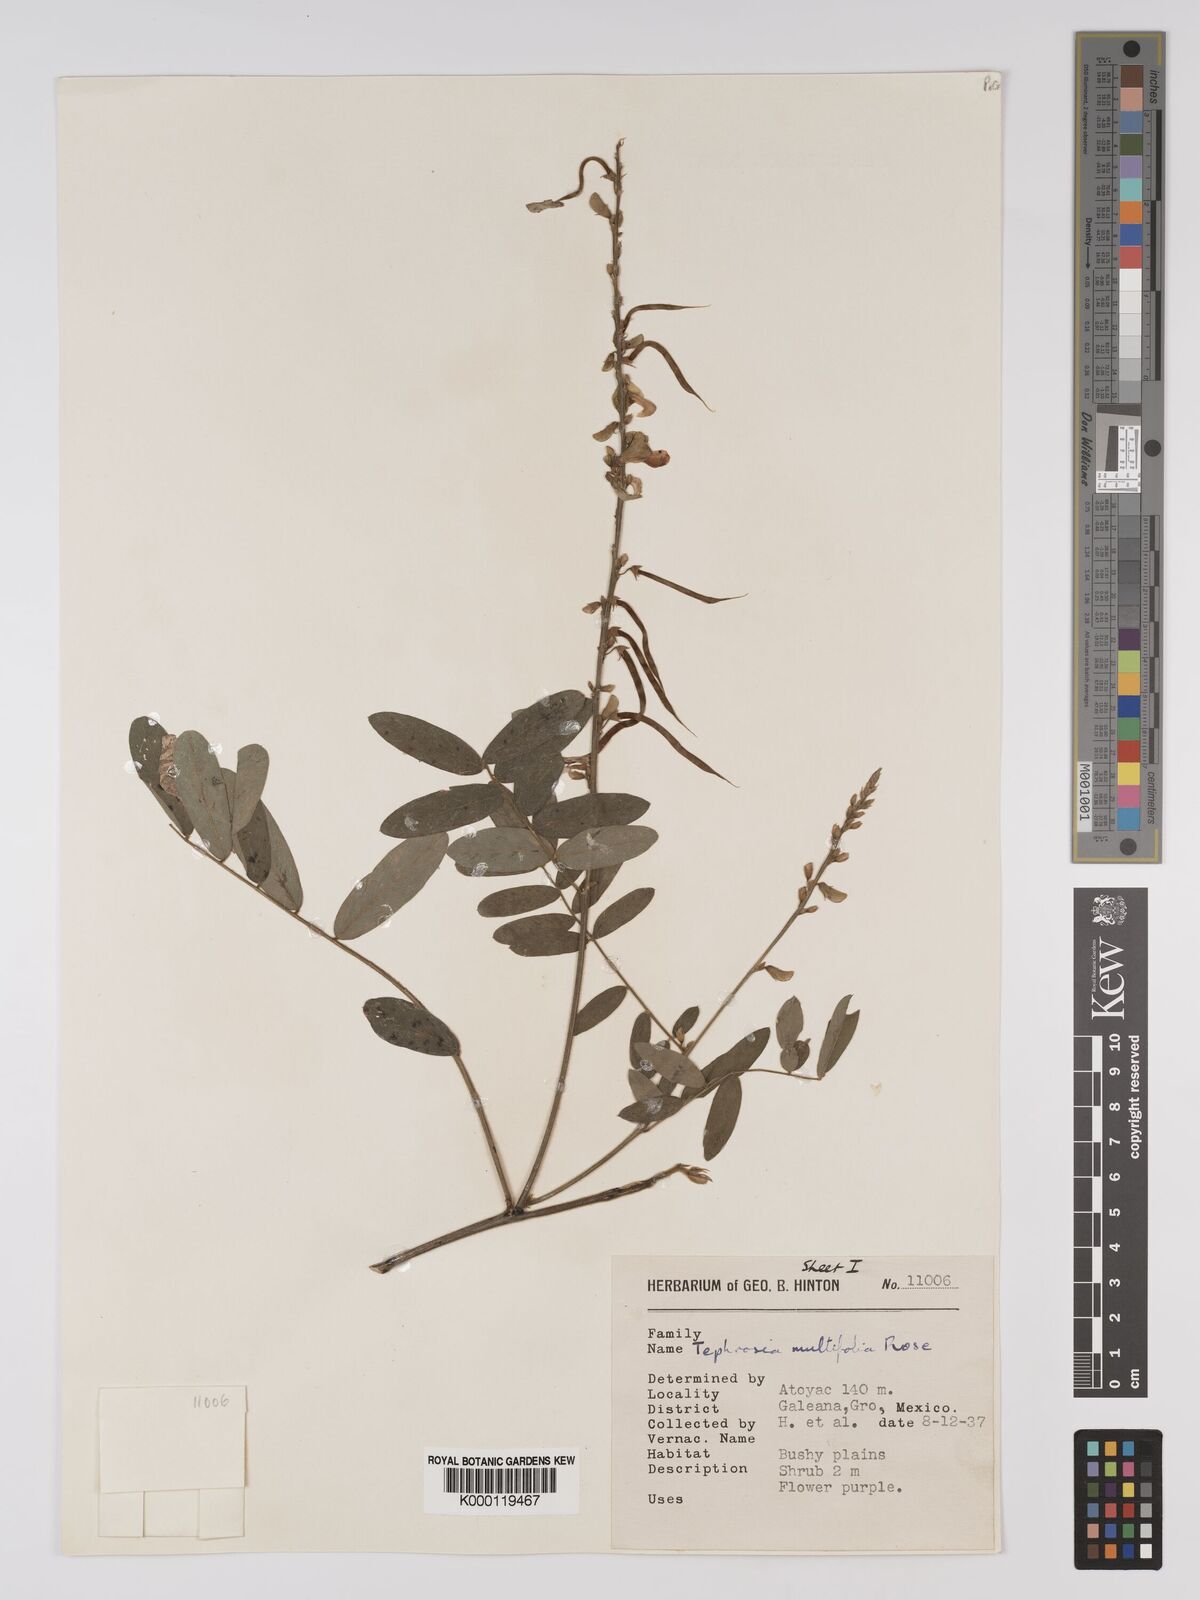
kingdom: Plantae
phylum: Tracheophyta
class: Magnoliopsida
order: Fabales
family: Fabaceae
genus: Tephrosia
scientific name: Tephrosia multifolia
